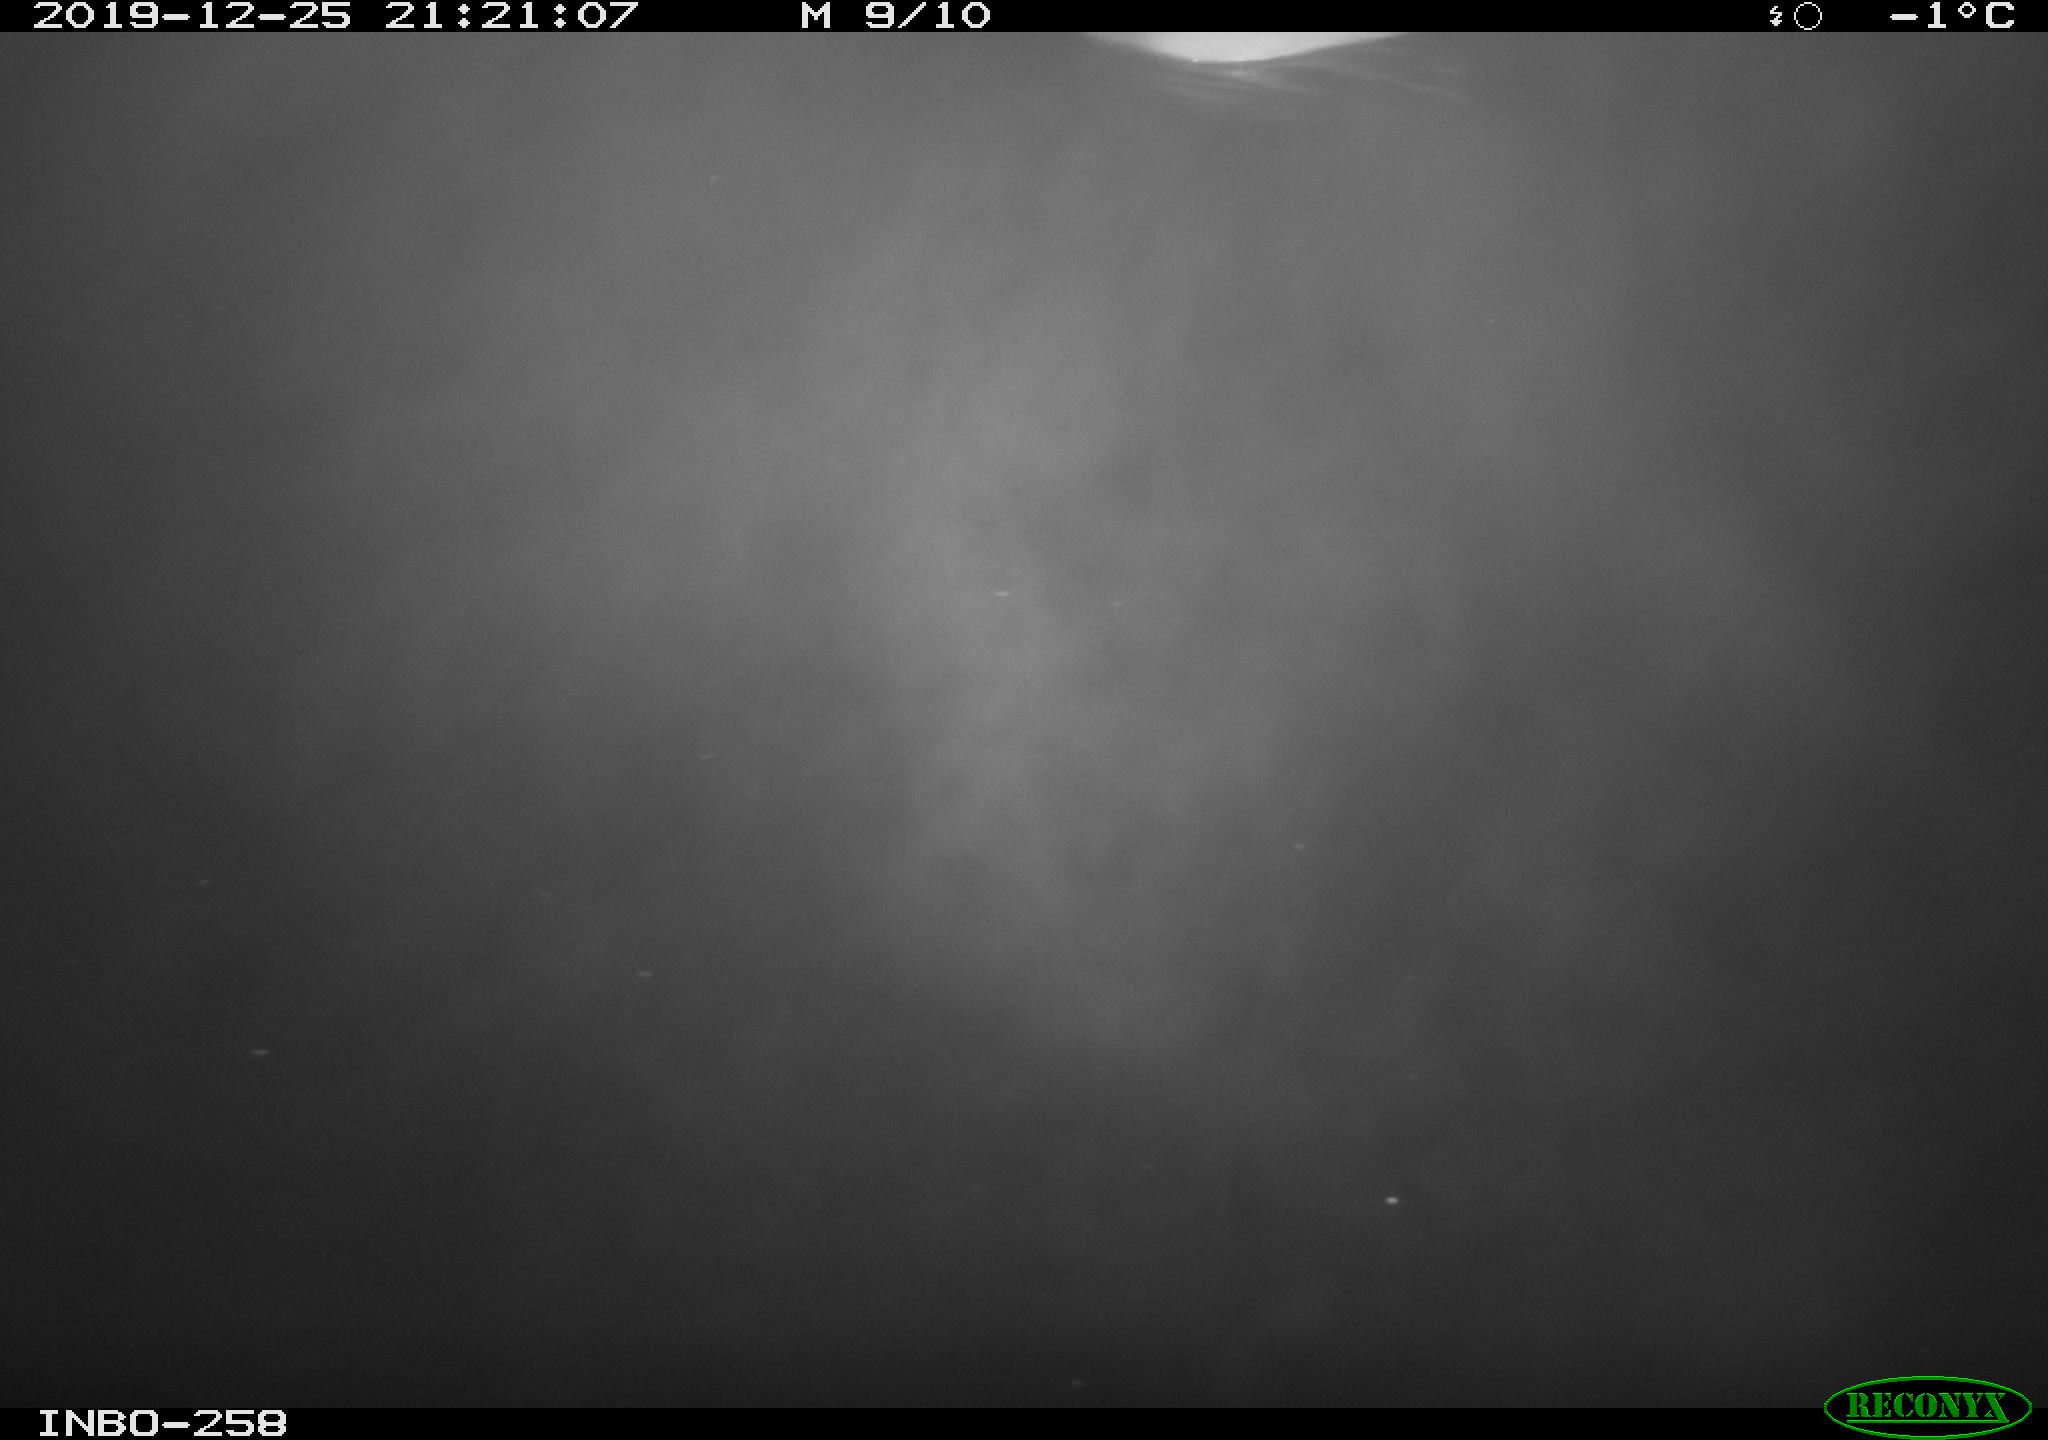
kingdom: Animalia
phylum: Chordata
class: Aves
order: Anseriformes
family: Anatidae
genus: Anas
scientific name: Anas platyrhynchos
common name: Mallard
